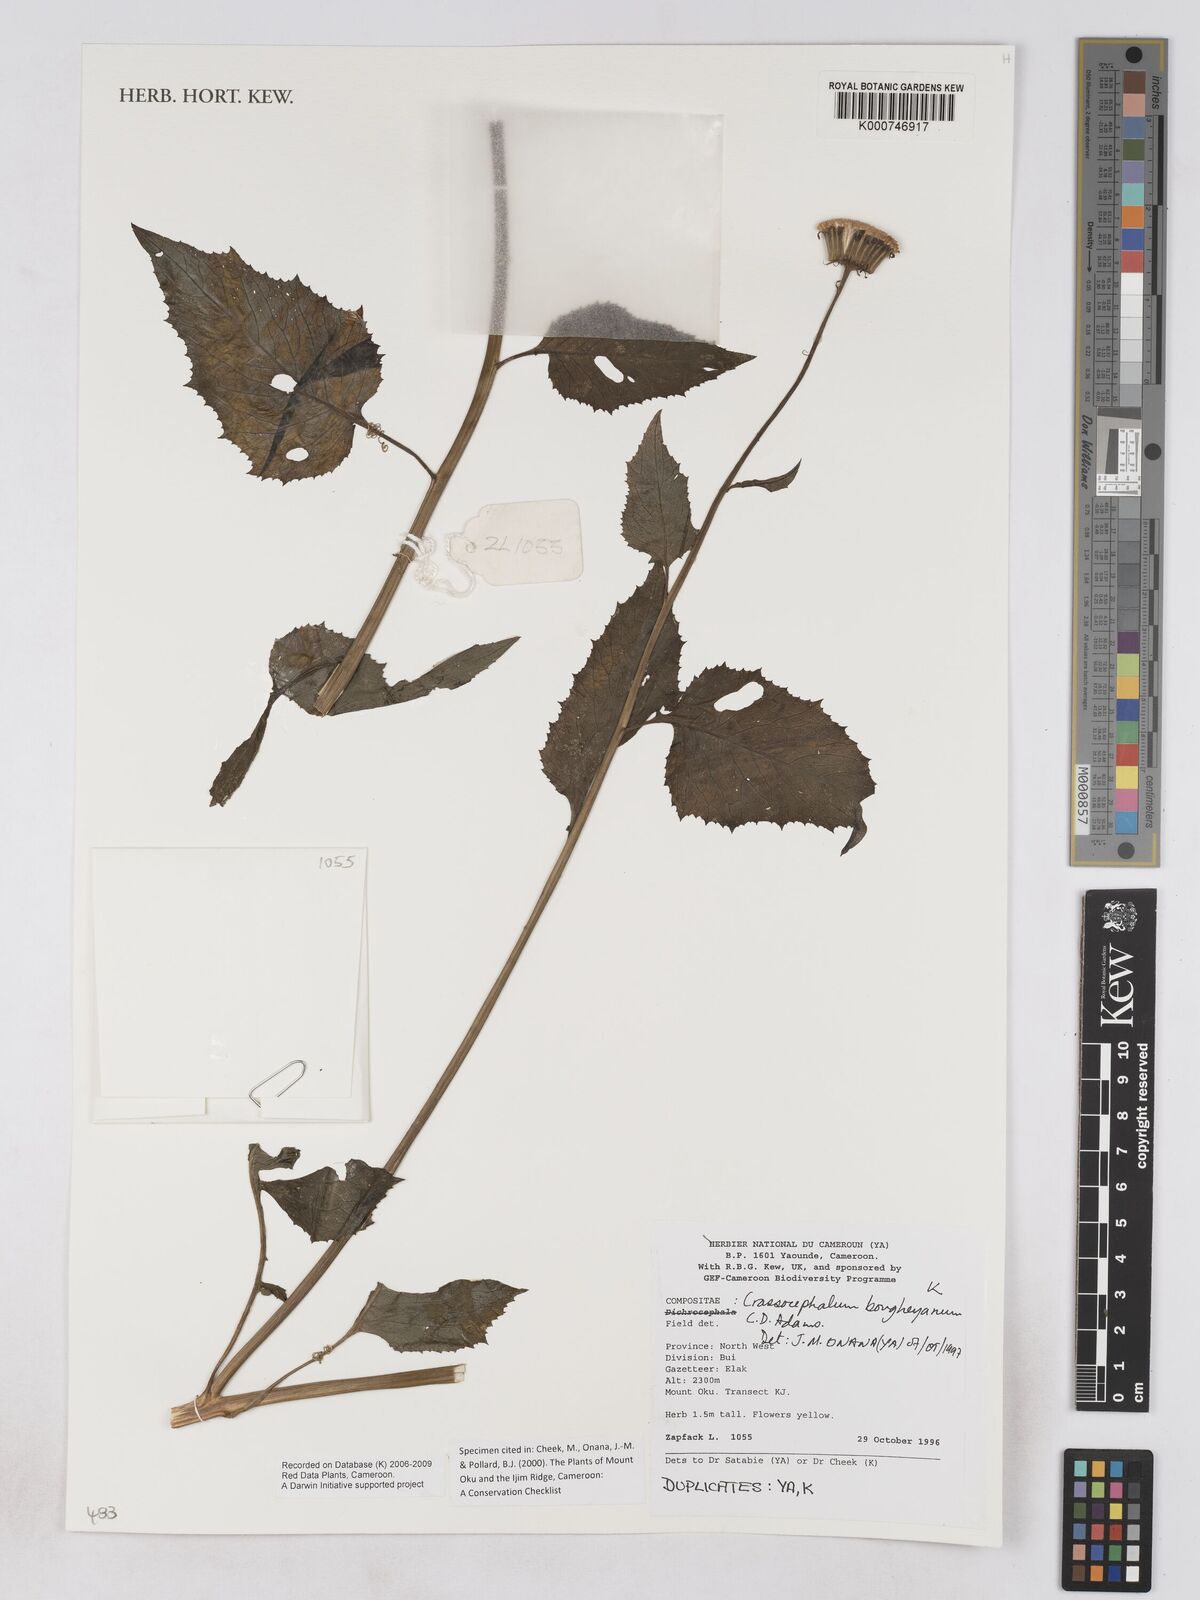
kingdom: Plantae
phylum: Tracheophyta
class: Magnoliopsida
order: Asterales
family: Asteraceae
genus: Crassocephalum
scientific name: Crassocephalum bougheyanum
